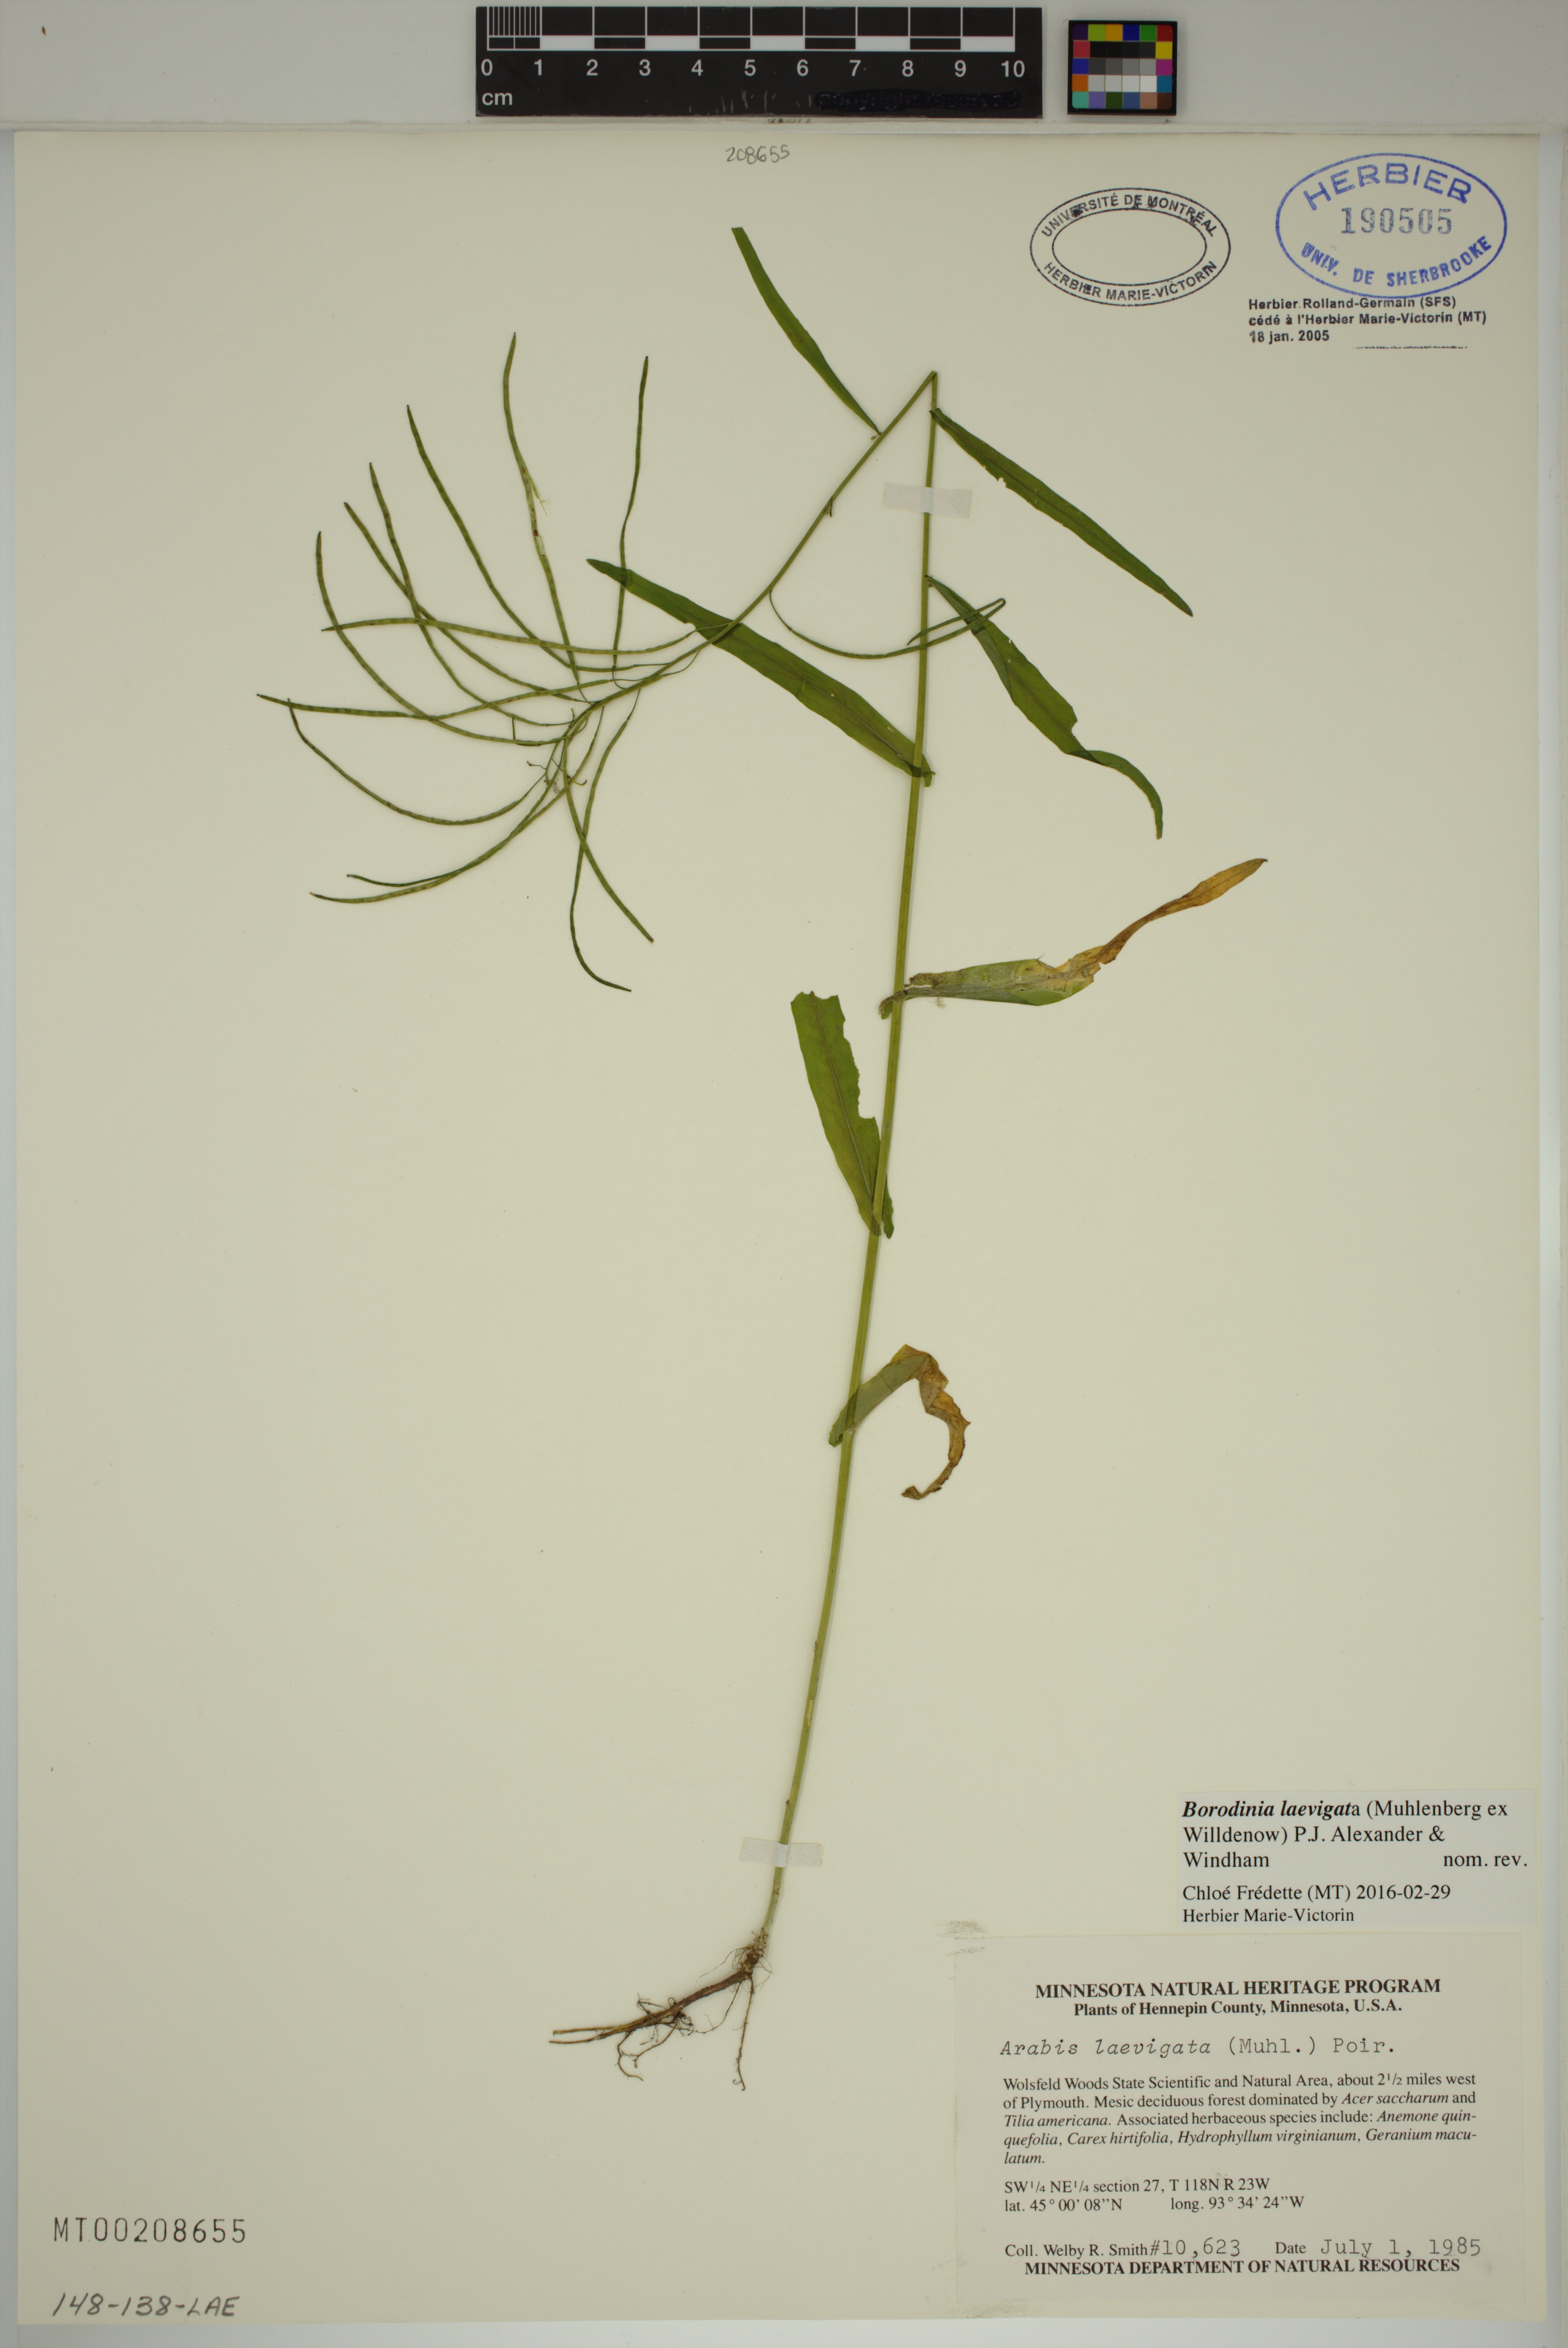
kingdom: Plantae
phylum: Tracheophyta
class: Magnoliopsida
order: Brassicales
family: Brassicaceae
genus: Borodinia
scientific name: Borodinia laevigata
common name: Smooth rockcress
